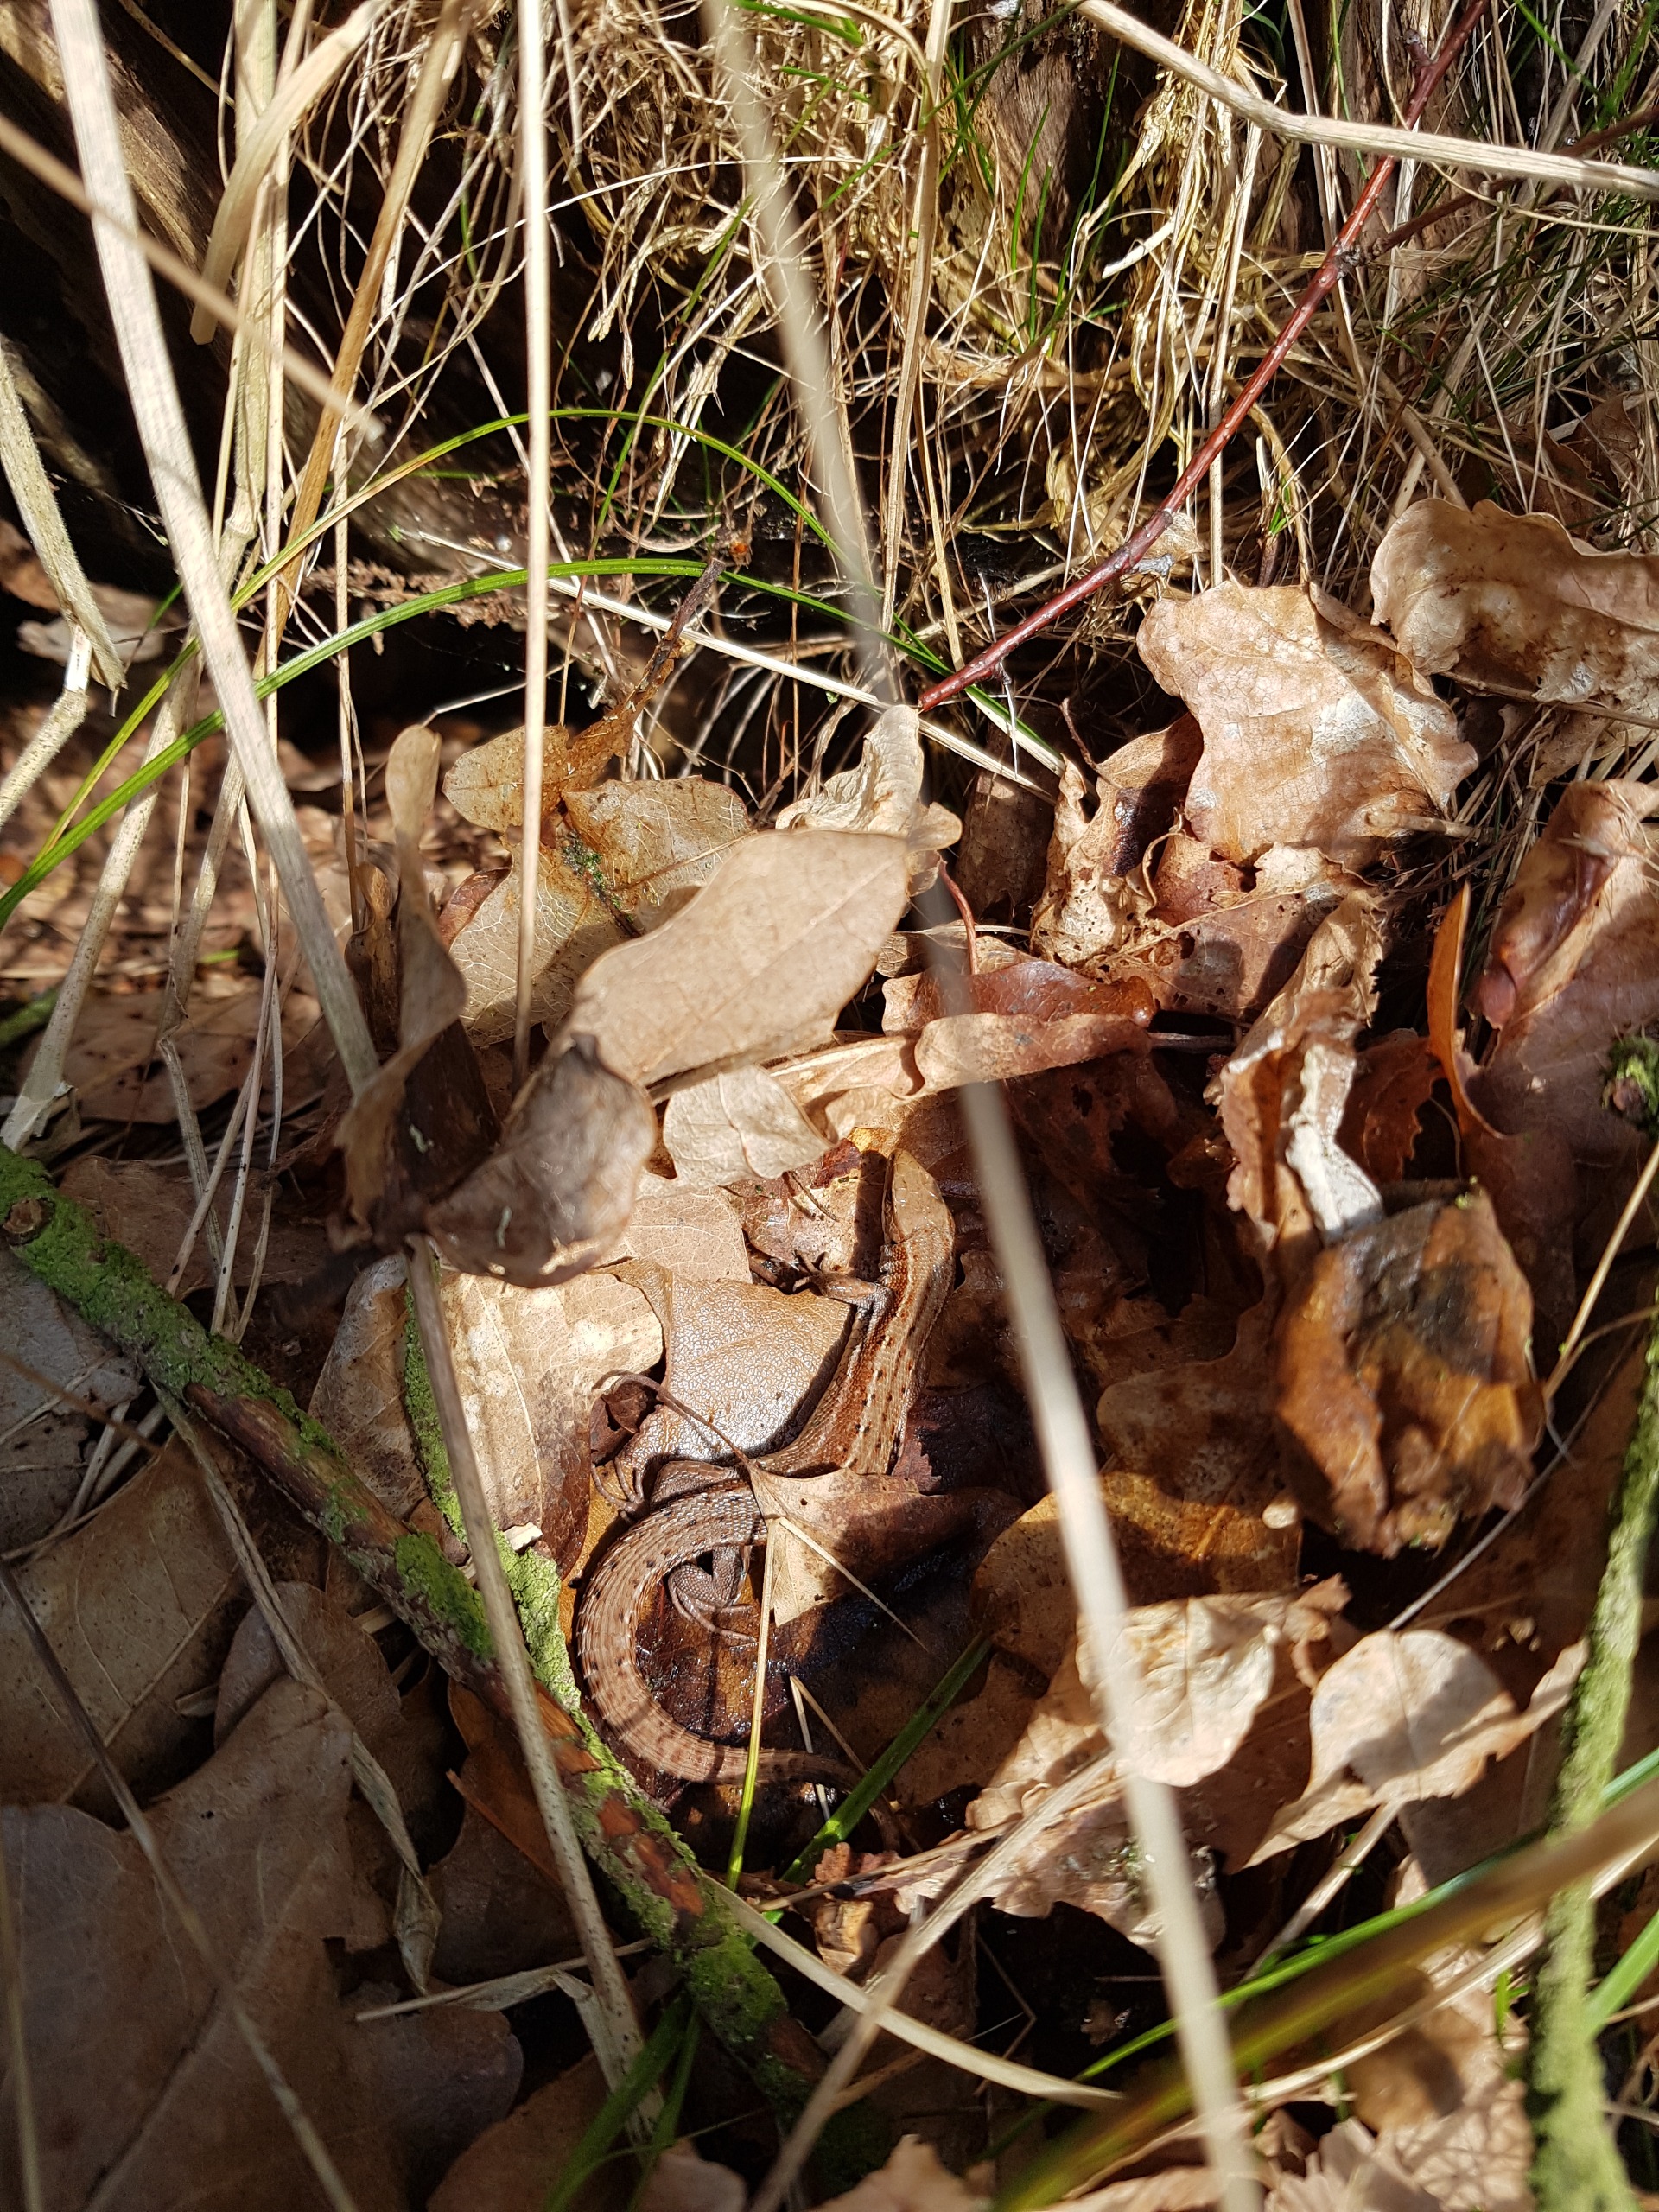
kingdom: Animalia
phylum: Chordata
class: Squamata
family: Lacertidae
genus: Zootoca
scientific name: Zootoca vivipara
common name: Skovfirben
